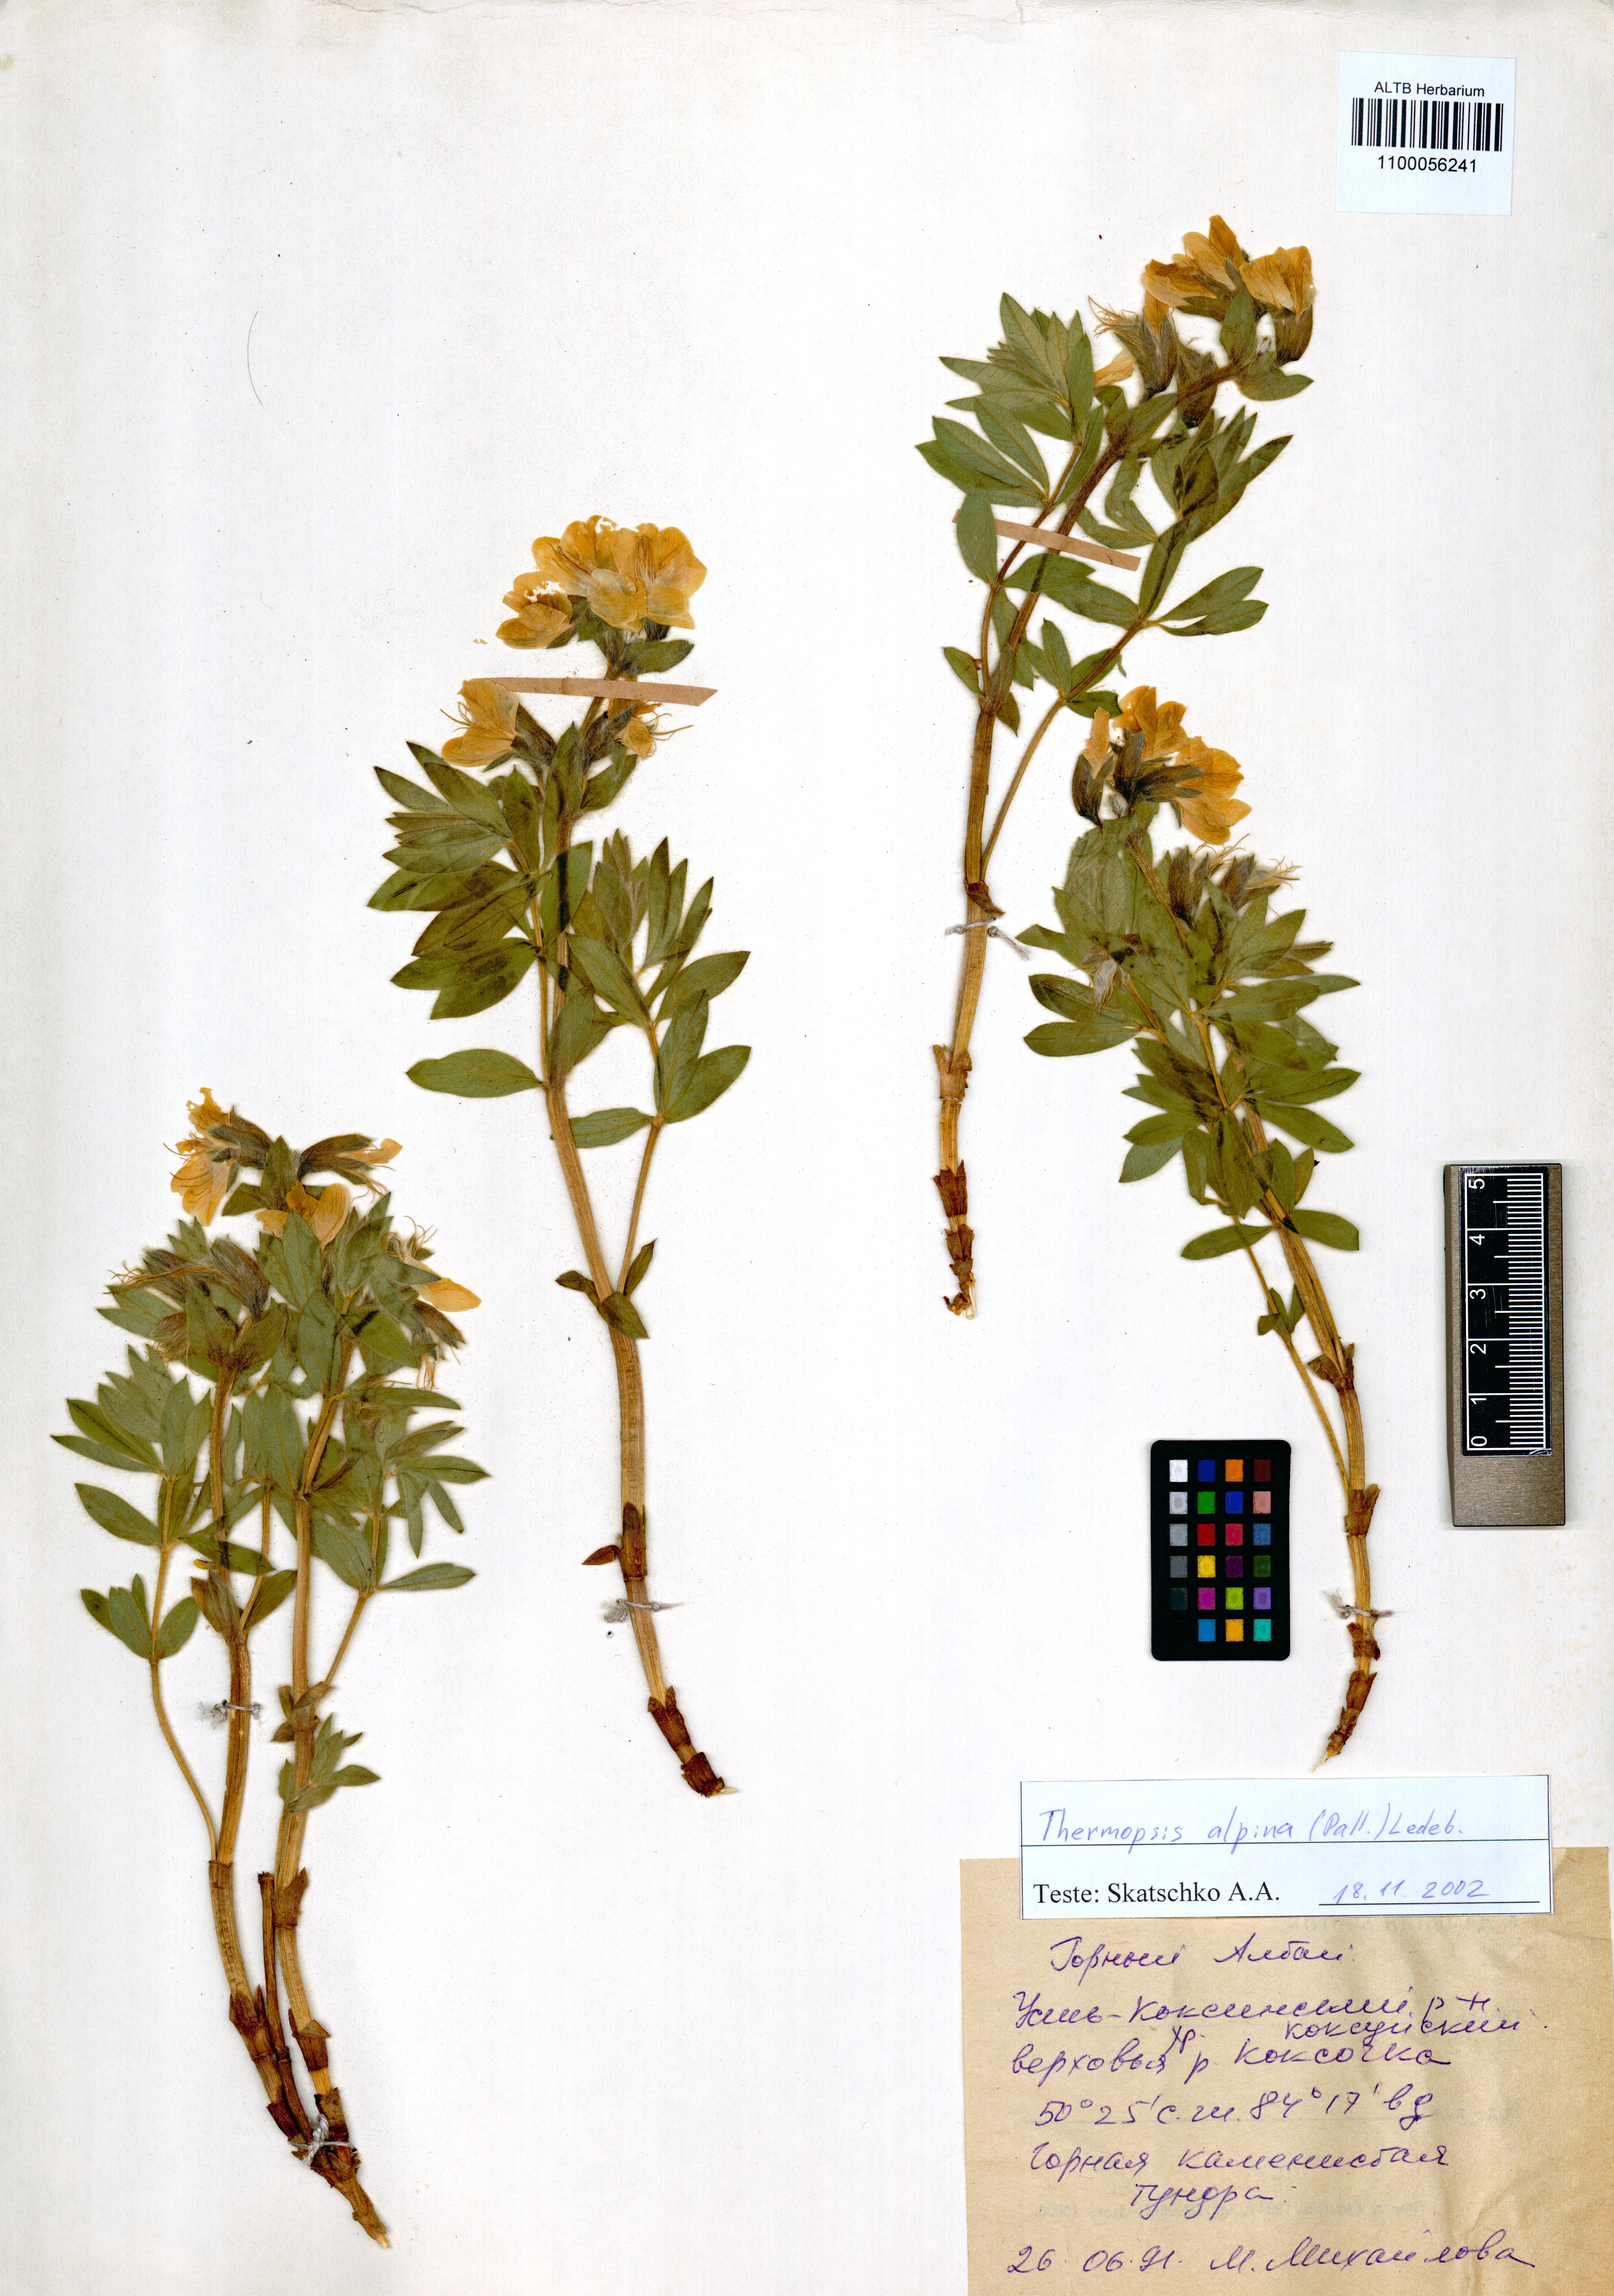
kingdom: Plantae
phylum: Tracheophyta
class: Magnoliopsida
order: Fabales
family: Fabaceae
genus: Thermopsis
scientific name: Thermopsis alpina
